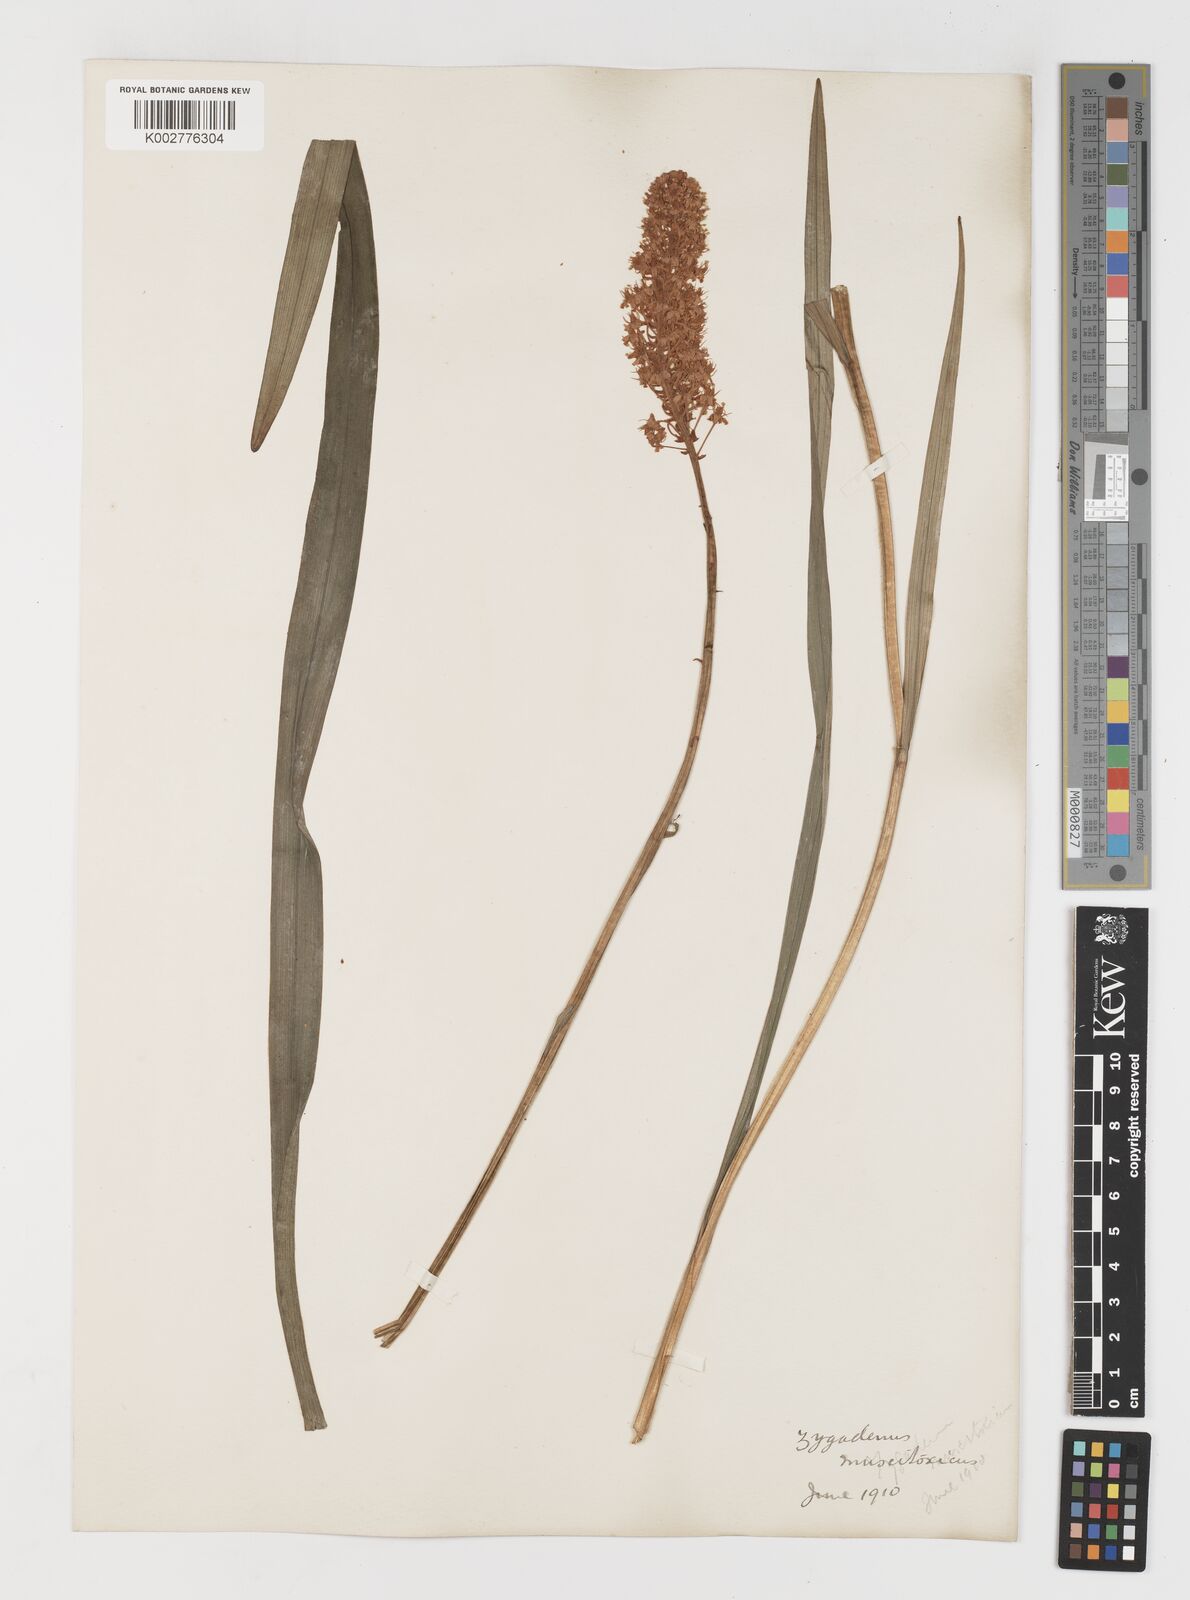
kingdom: Plantae
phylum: Tracheophyta
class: Liliopsida
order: Liliales
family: Melanthiaceae
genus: Amianthium
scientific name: Amianthium muscitoxicum
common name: Fly-poison
